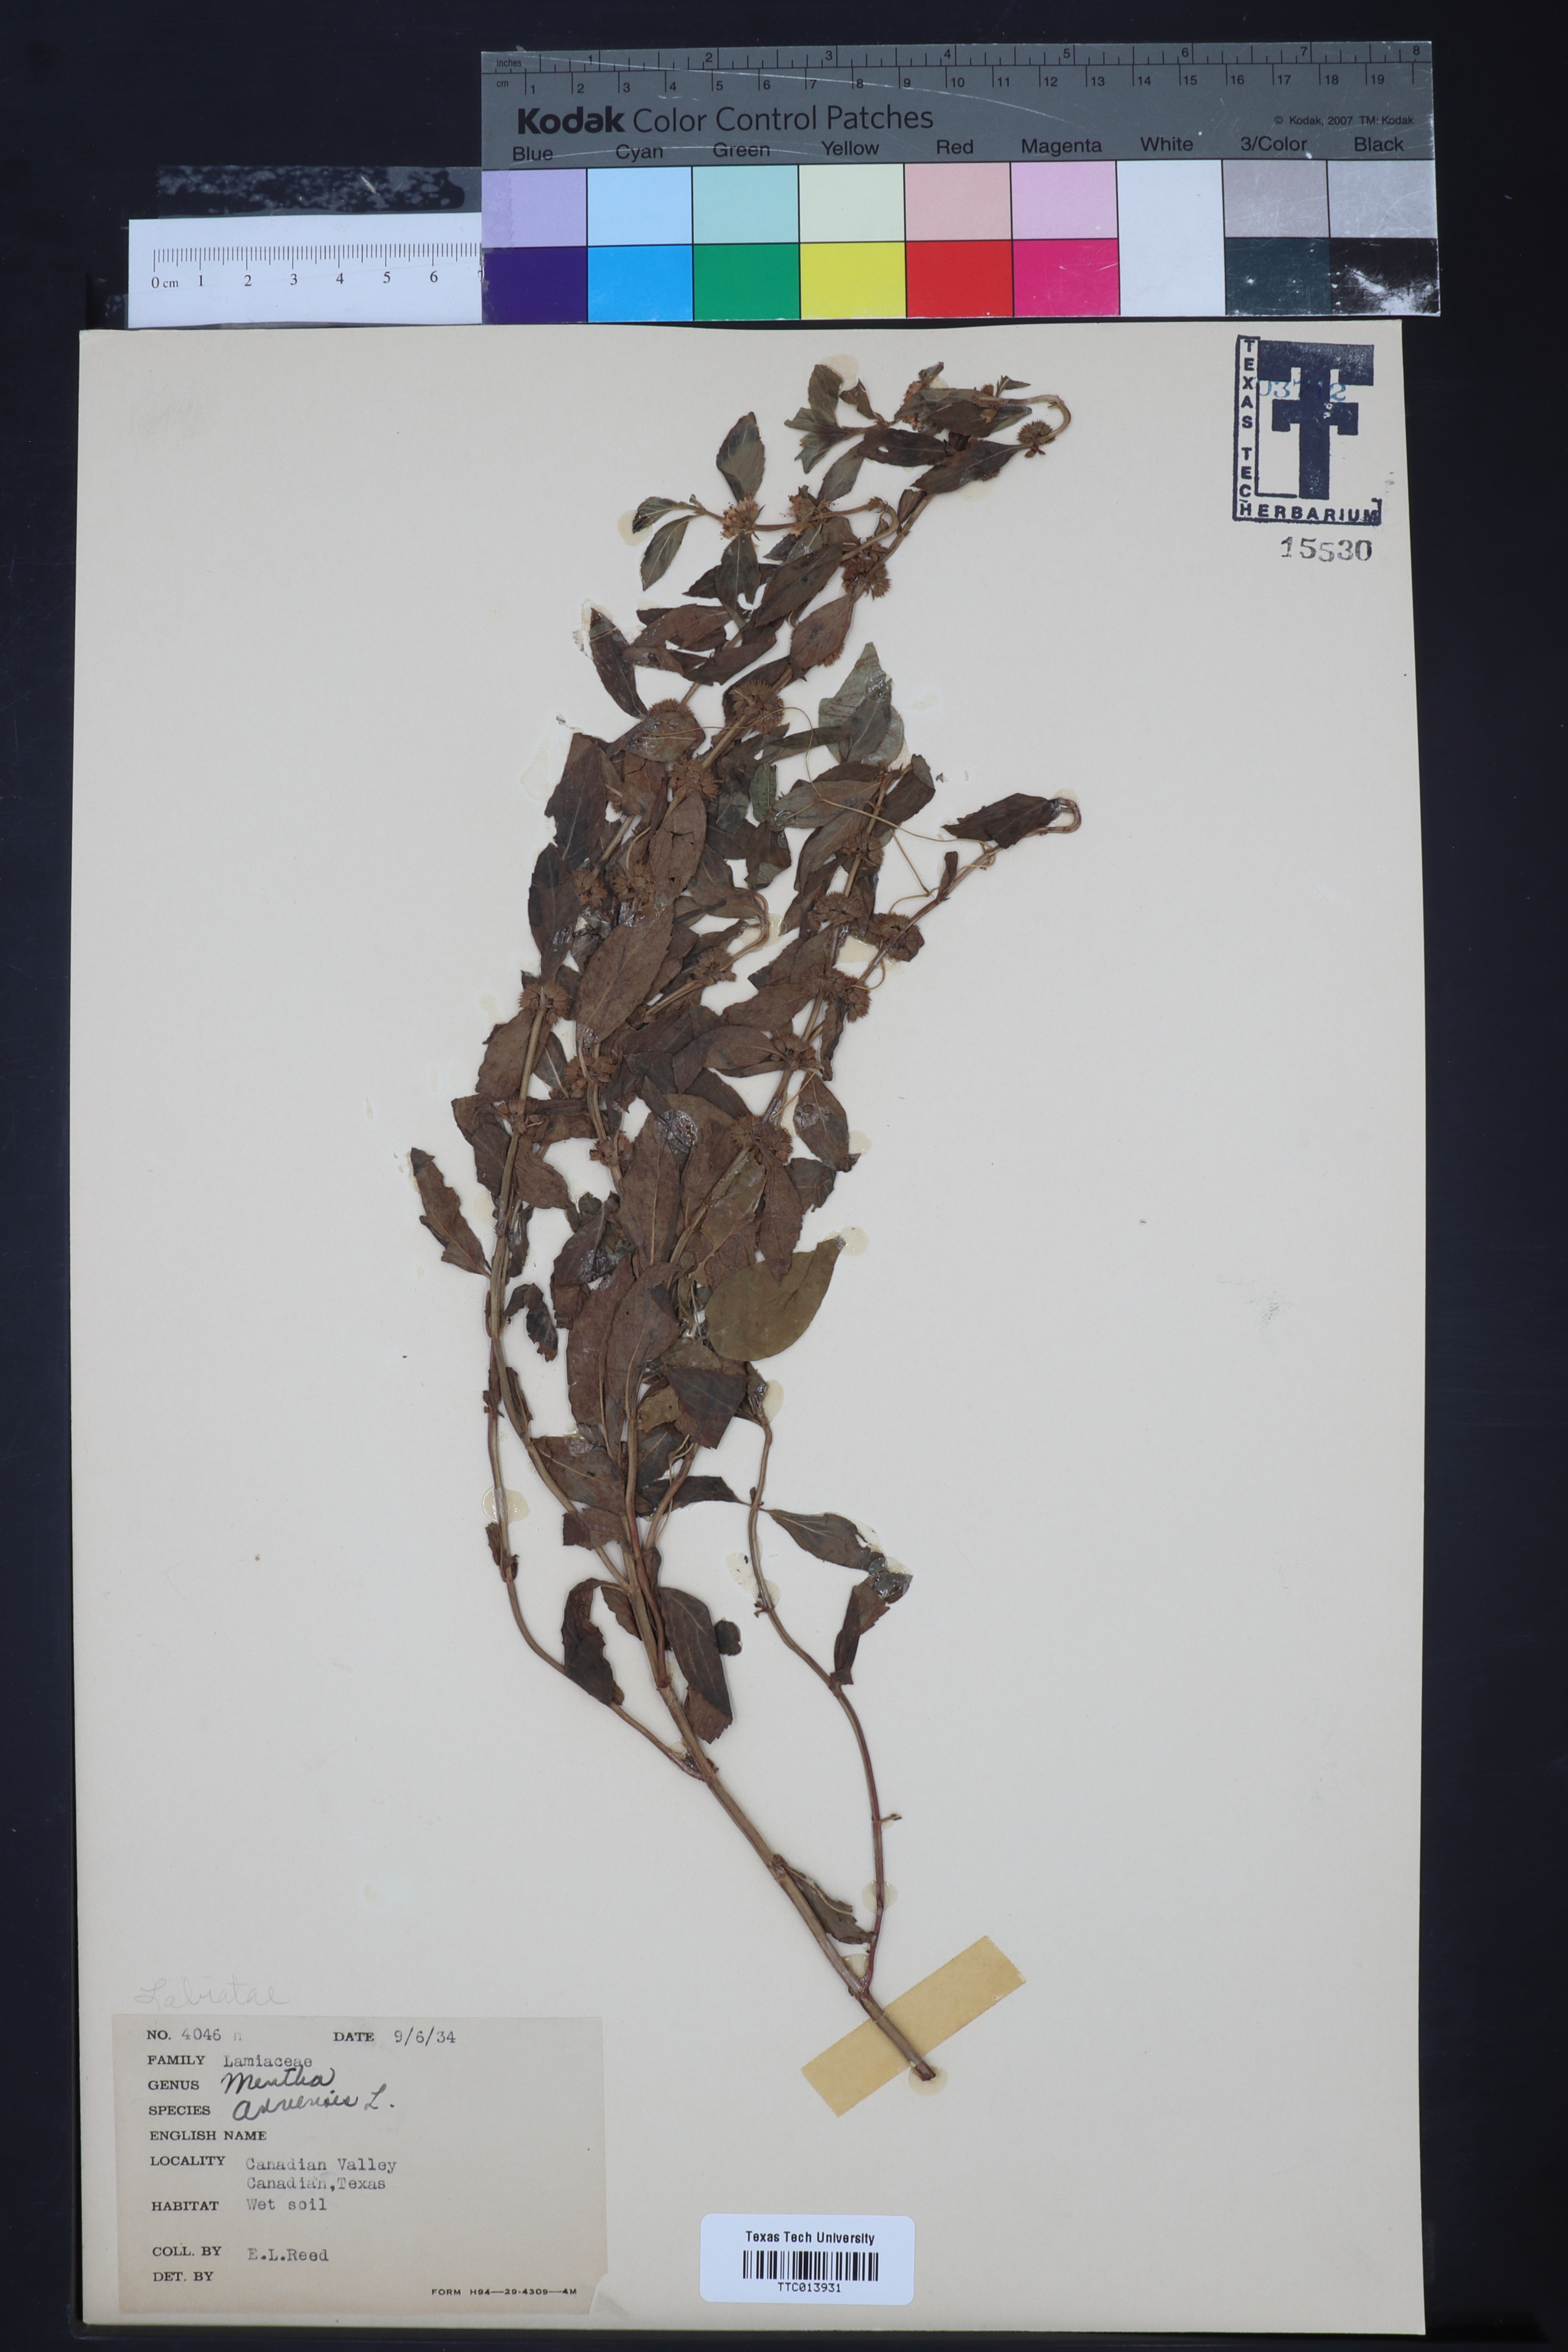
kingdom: Plantae
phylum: Tracheophyta
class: Magnoliopsida
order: Lamiales
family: Lamiaceae
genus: Mentha
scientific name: Mentha arvensis
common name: Corn mint
